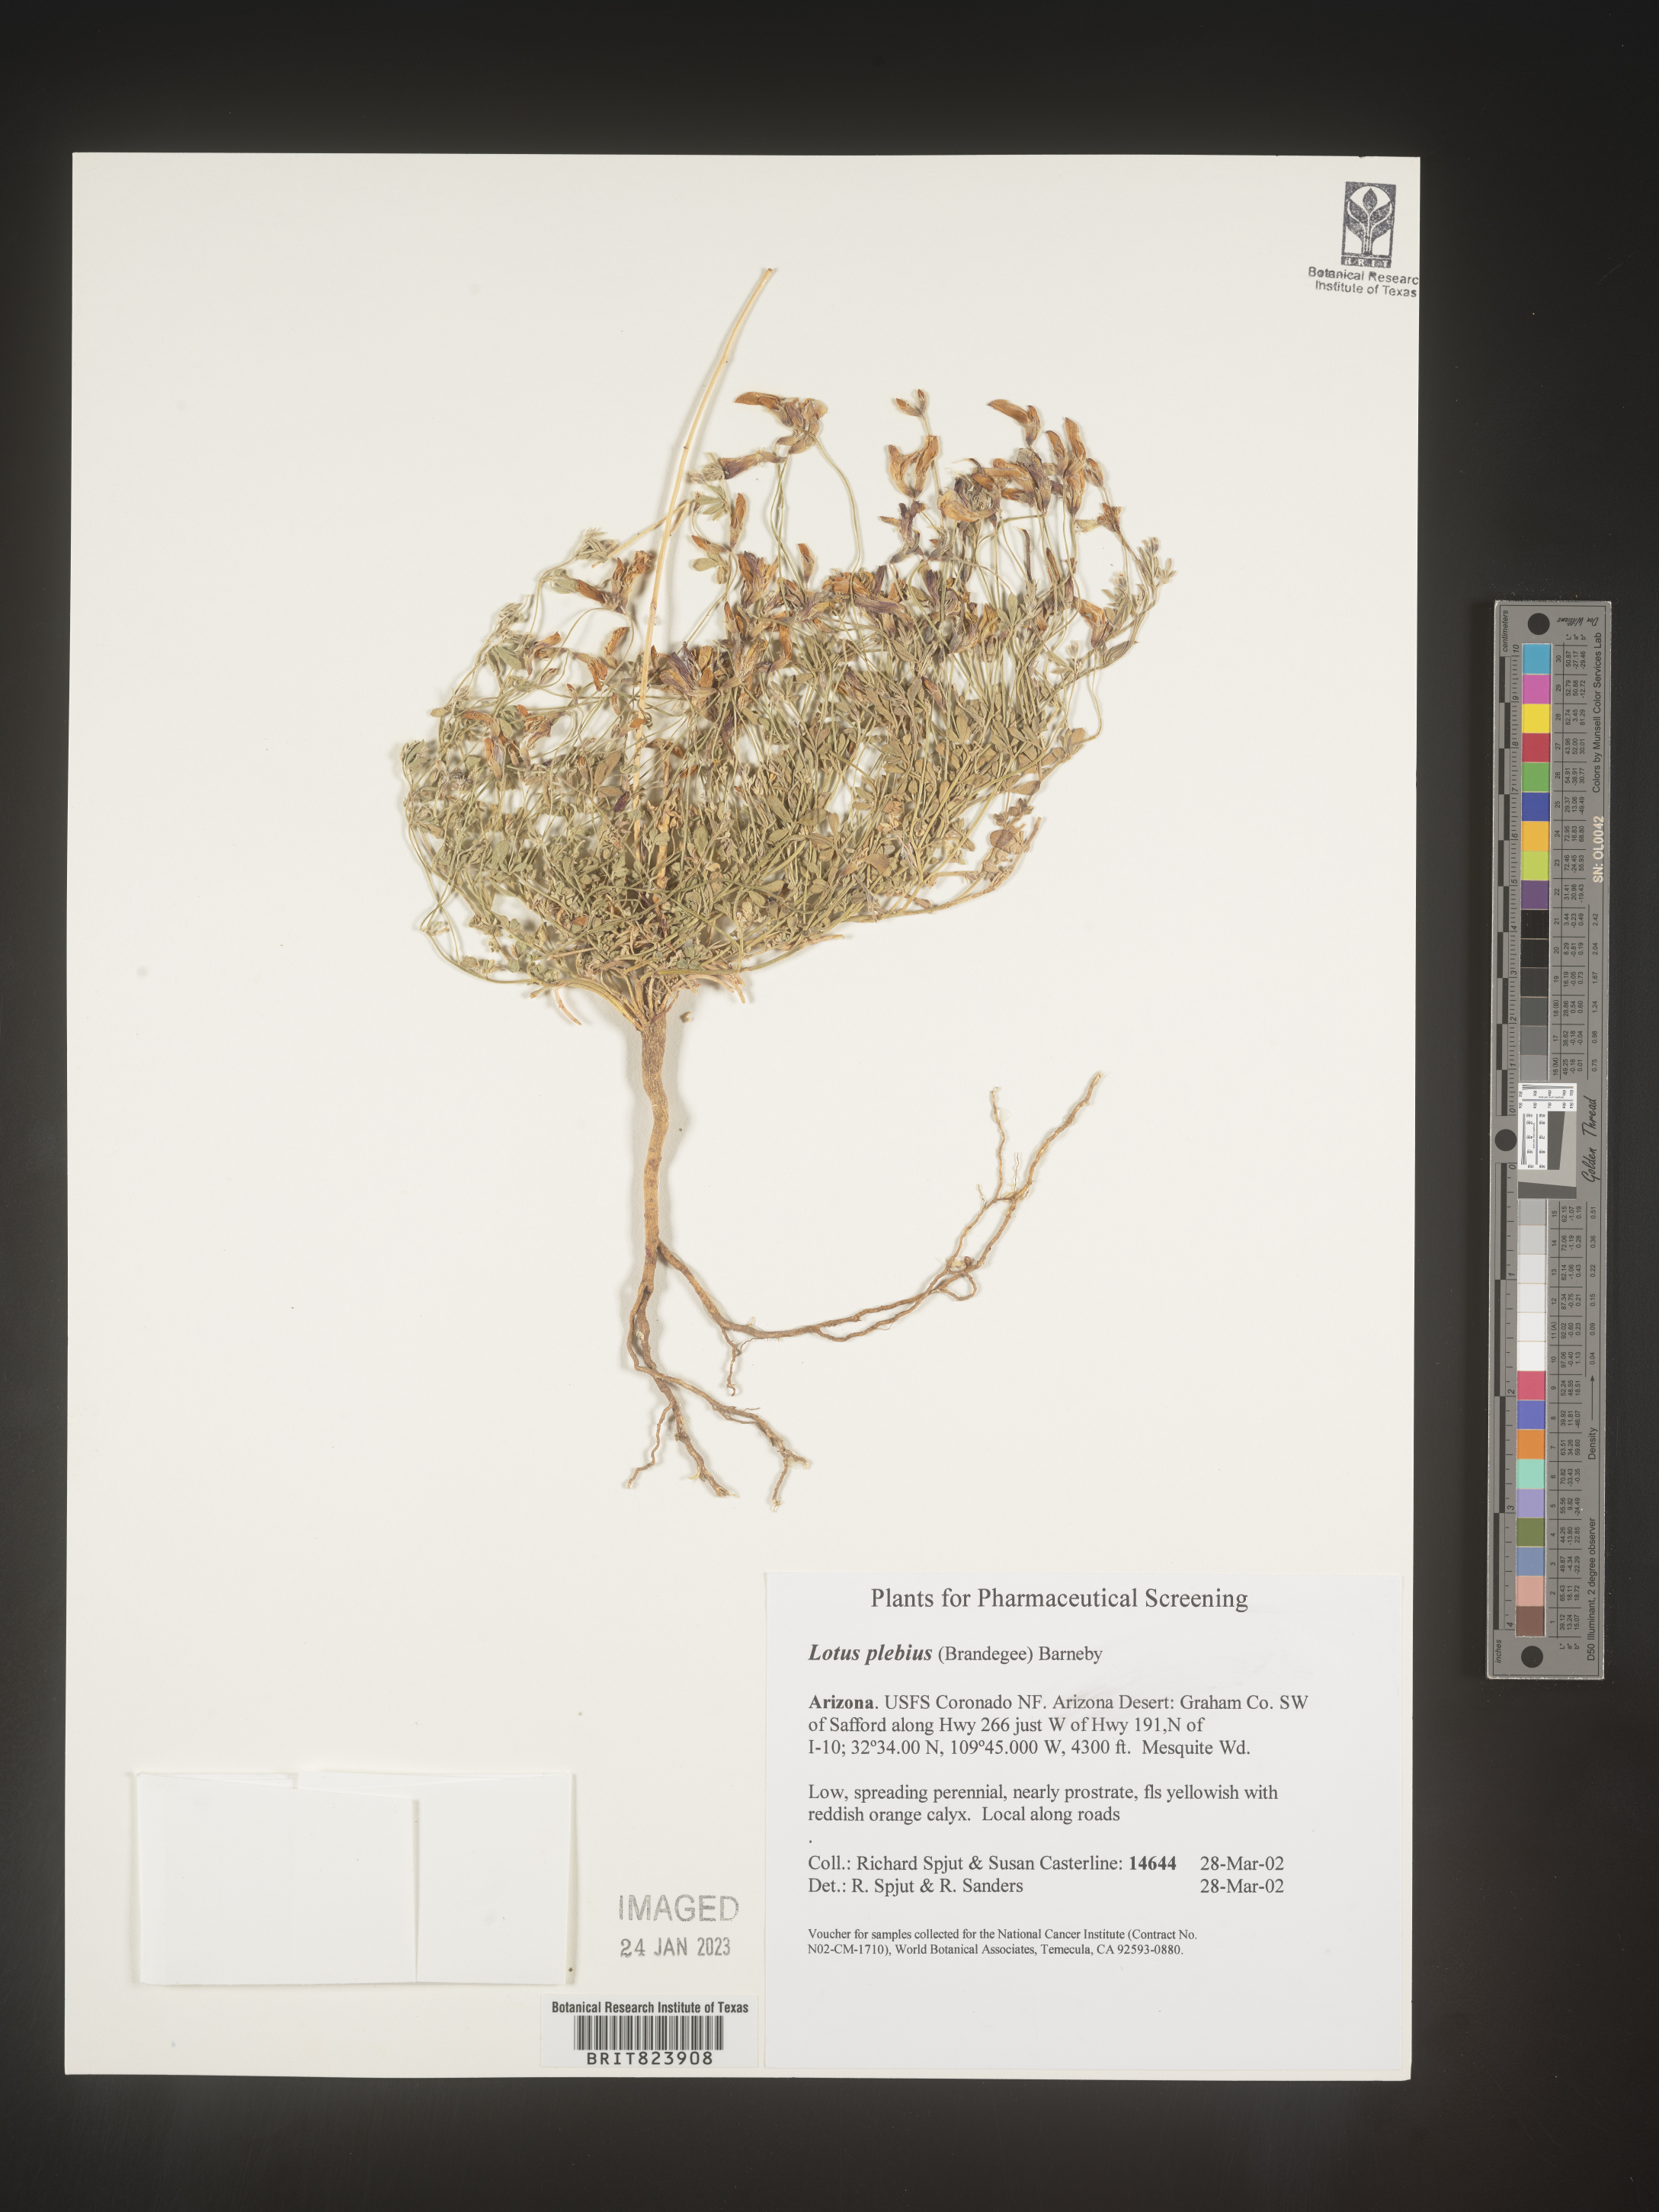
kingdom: Plantae
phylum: Tracheophyta
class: Magnoliopsida
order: Fabales
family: Fabaceae
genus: Lotus
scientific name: Lotus
